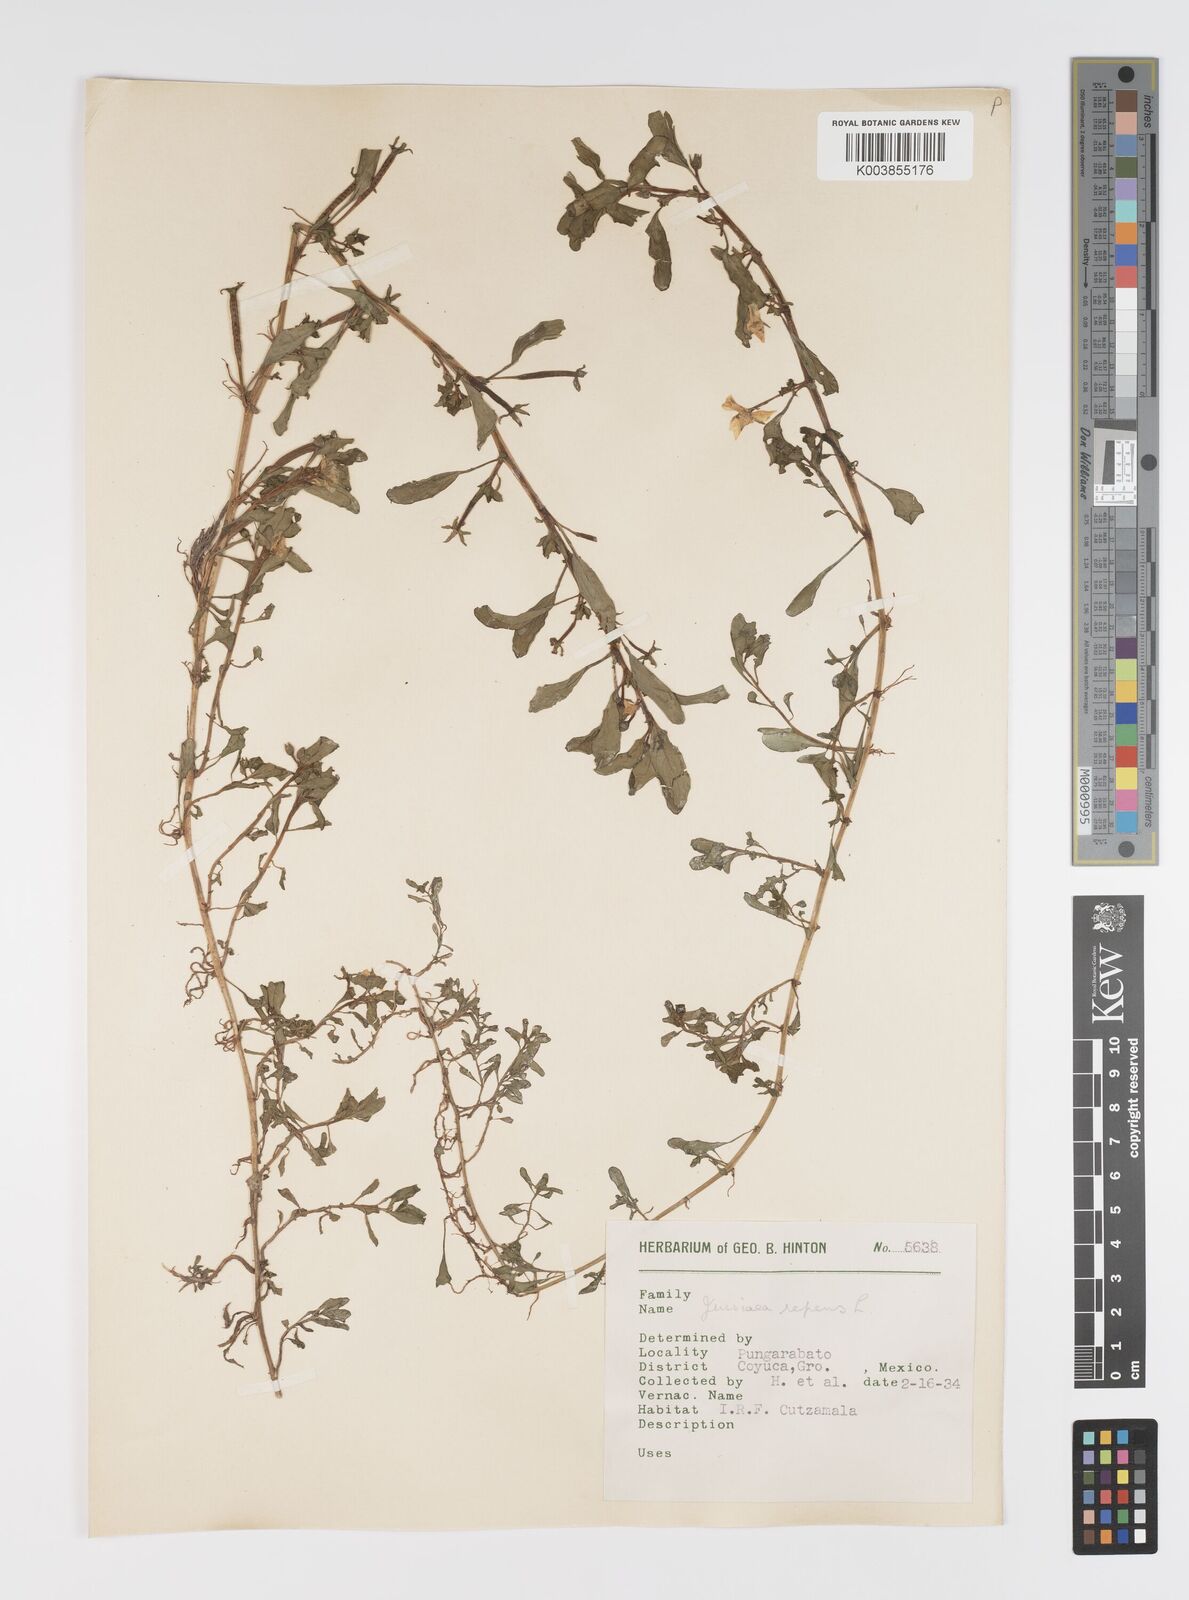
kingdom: Plantae
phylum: Tracheophyta
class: Magnoliopsida
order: Myrtales
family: Onagraceae
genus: Ludwigia
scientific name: Ludwigia peploides
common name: Floating primrose-willow
